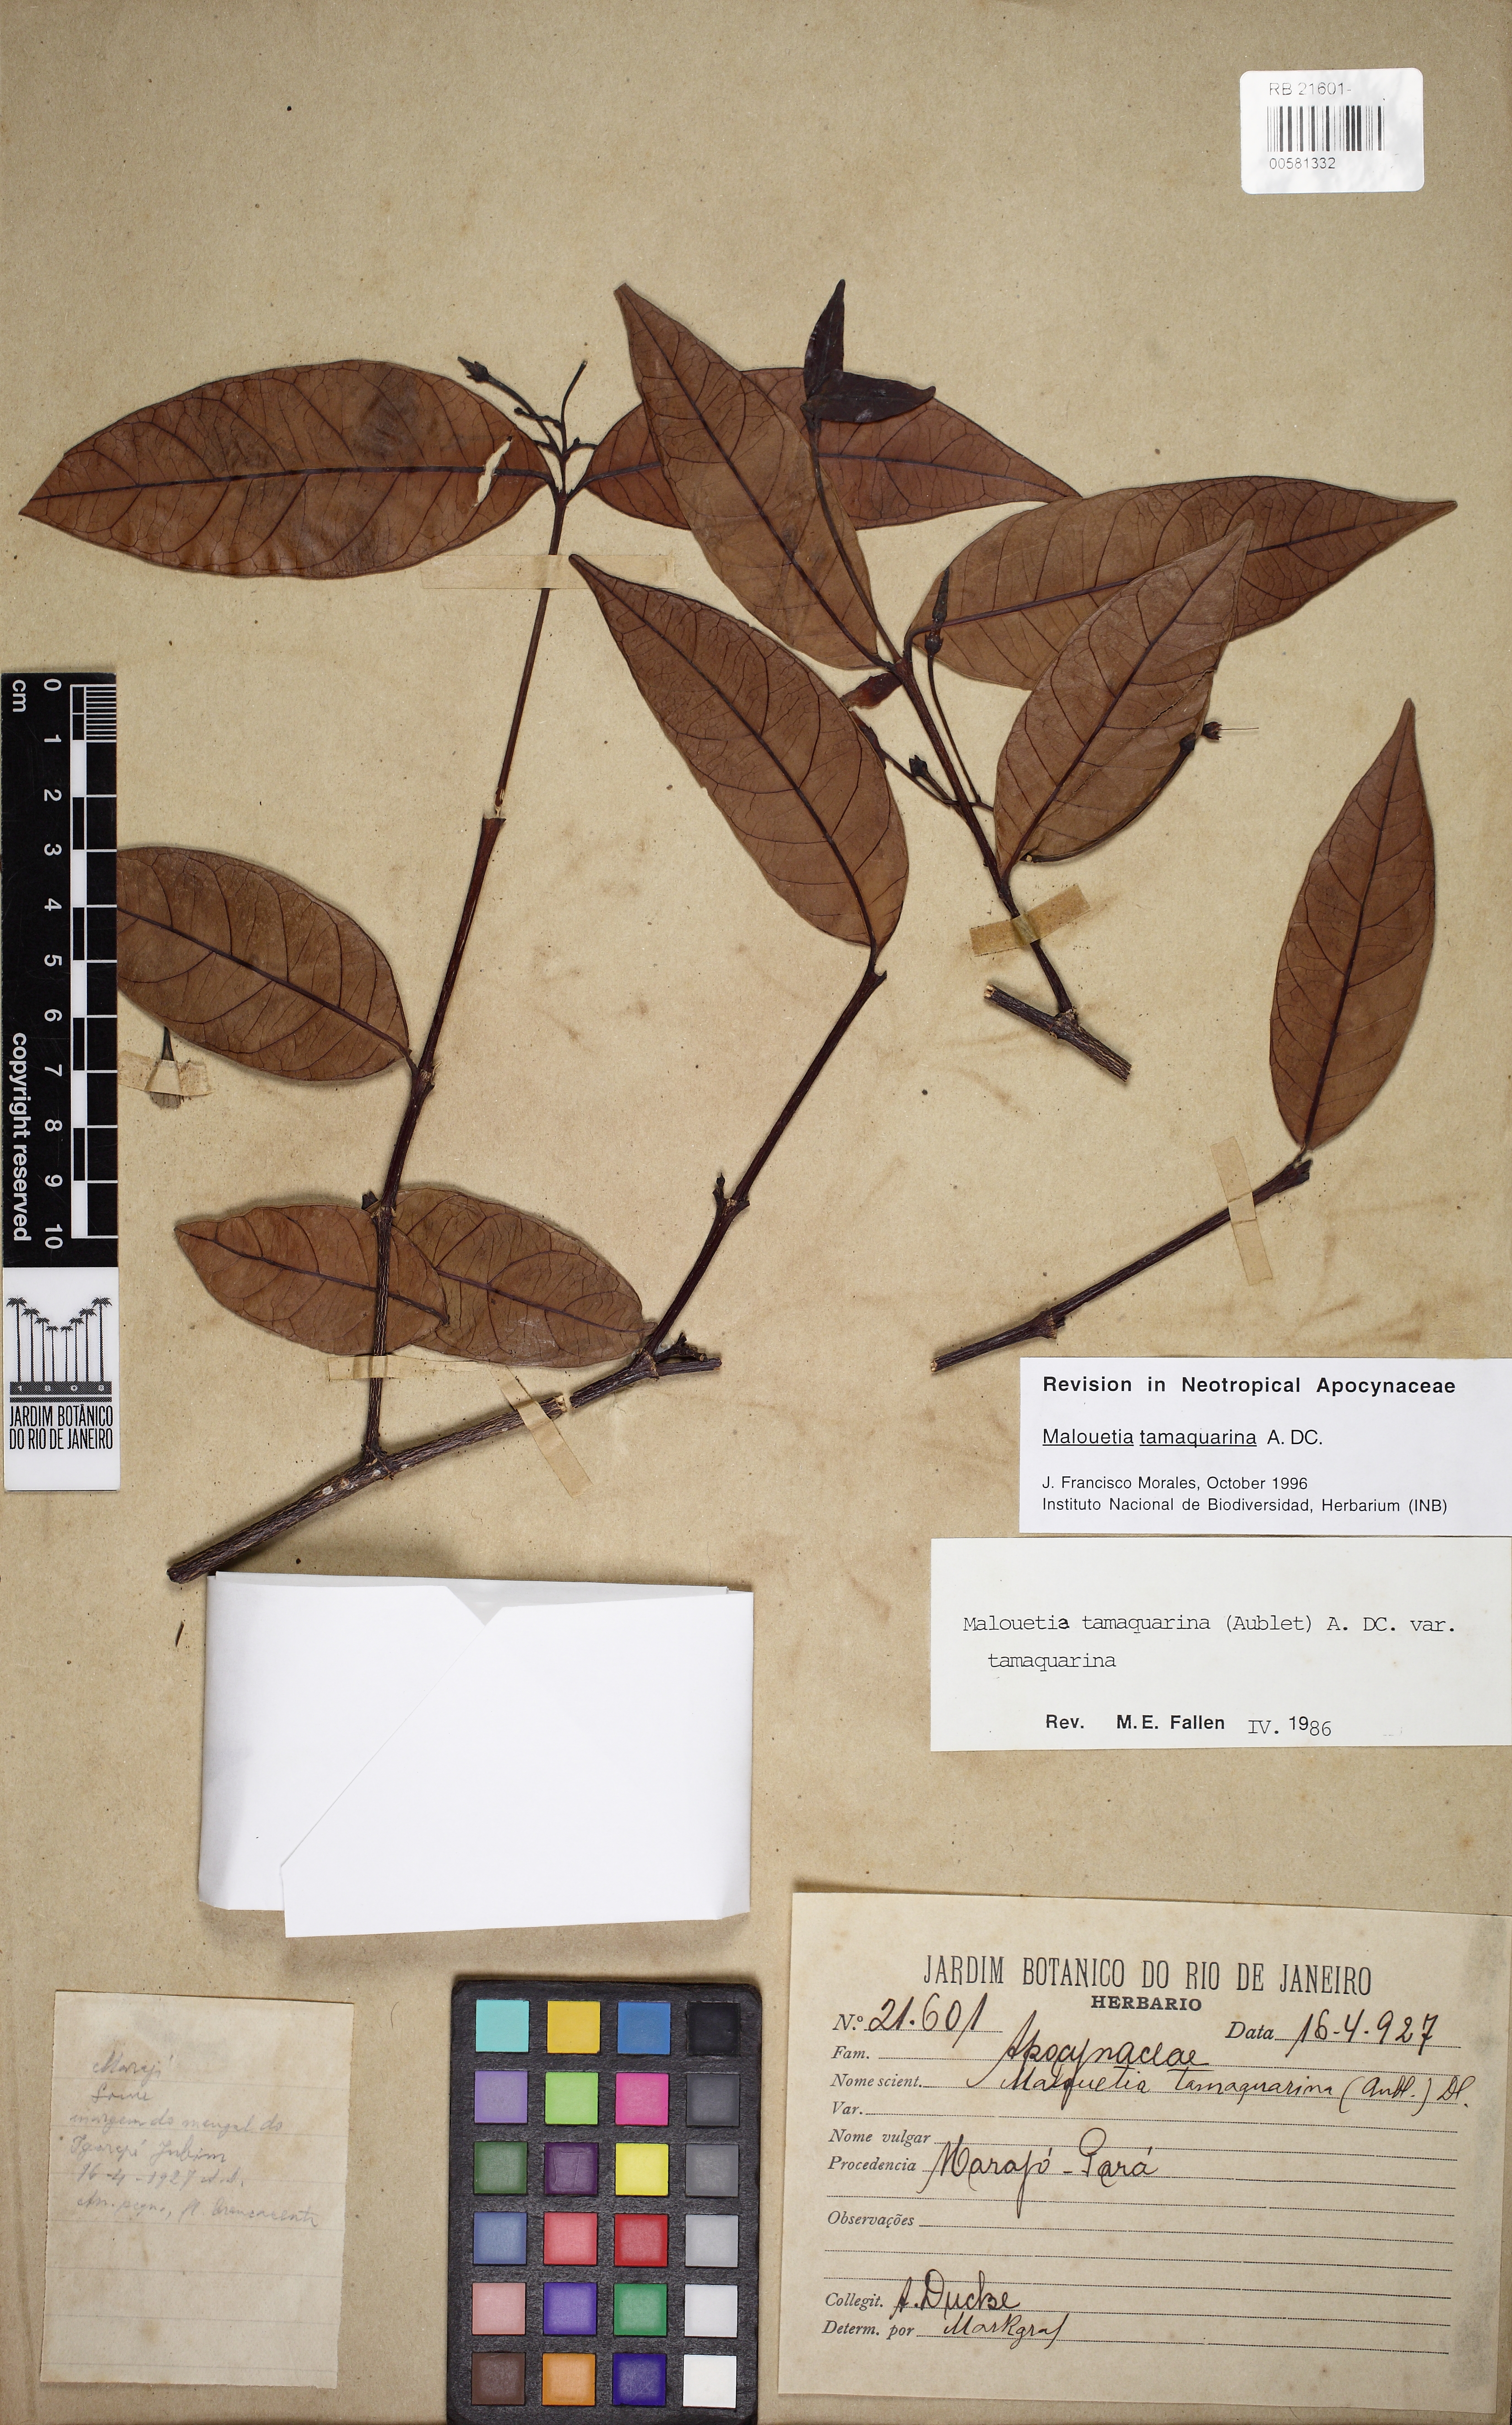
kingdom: Plantae
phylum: Tracheophyta
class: Magnoliopsida
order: Gentianales
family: Apocynaceae
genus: Malouetia
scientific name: Malouetia tamaquarina
